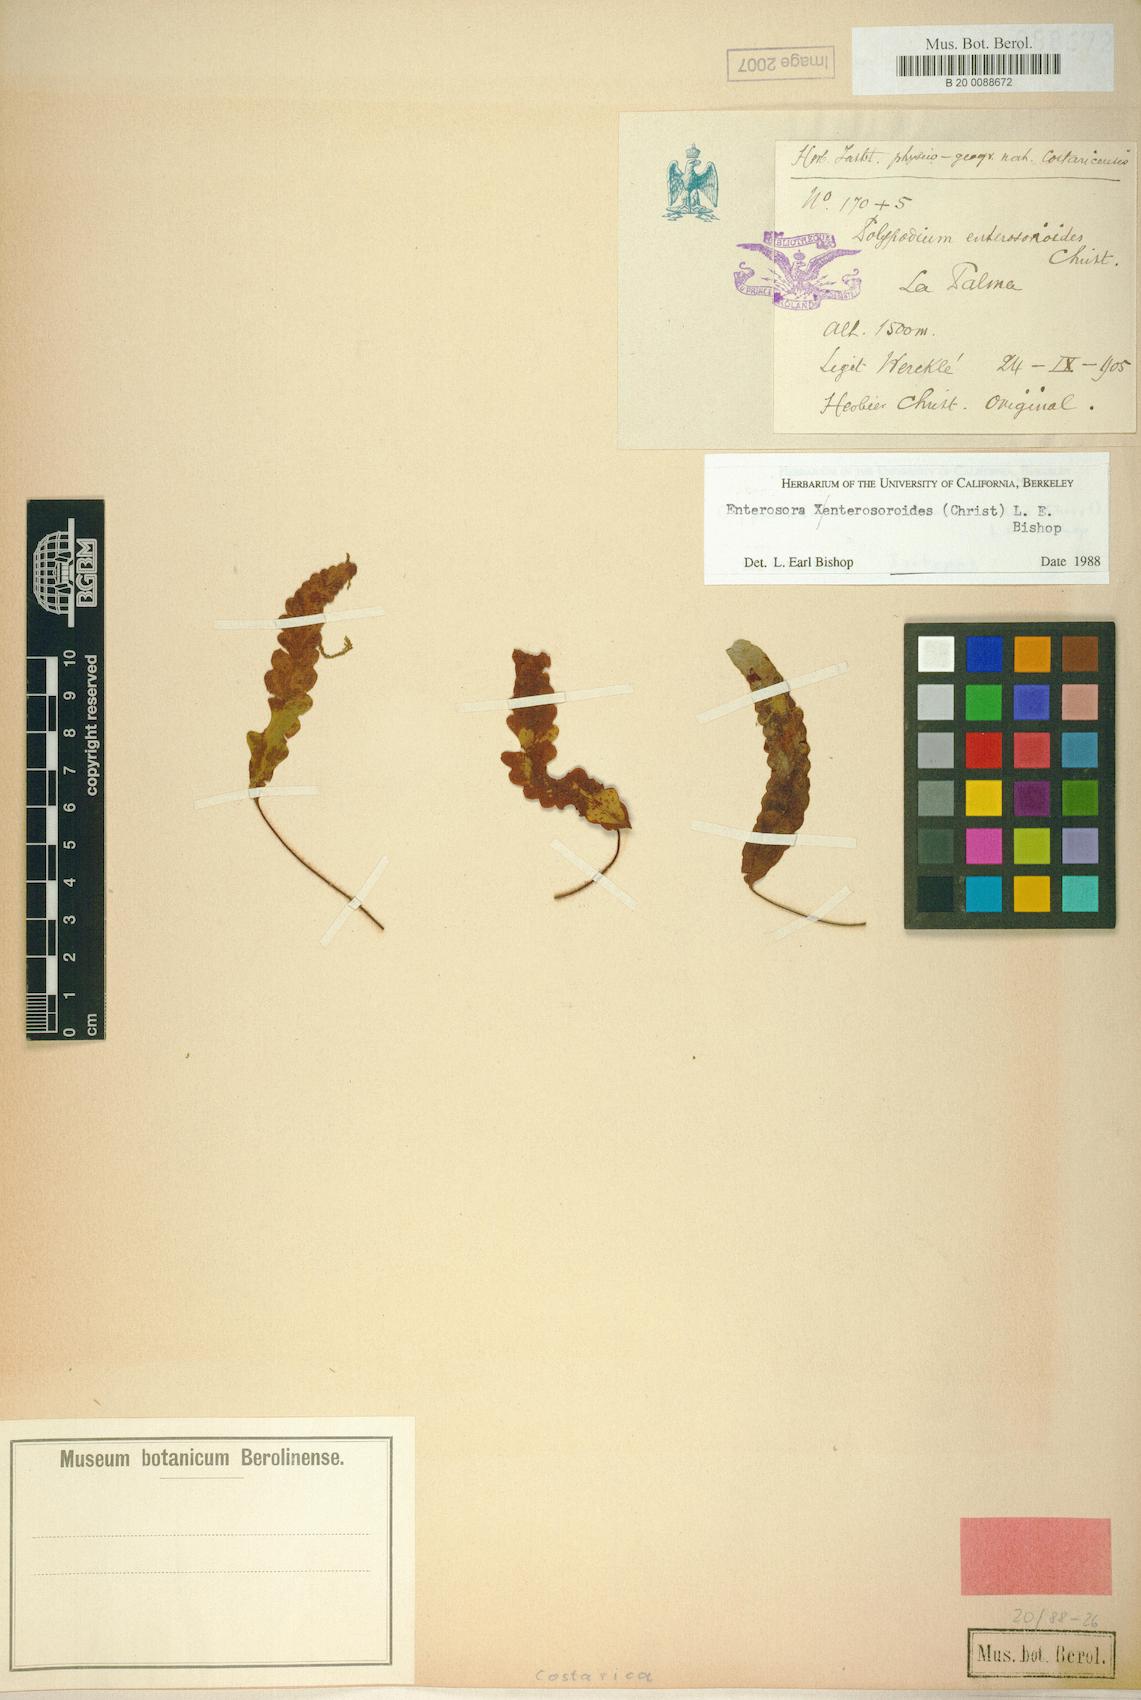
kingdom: Plantae
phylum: Tracheophyta
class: Polypodiopsida
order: Polypodiales
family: Polypodiaceae
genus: Enterosora
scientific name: Enterosora enterosoroides
